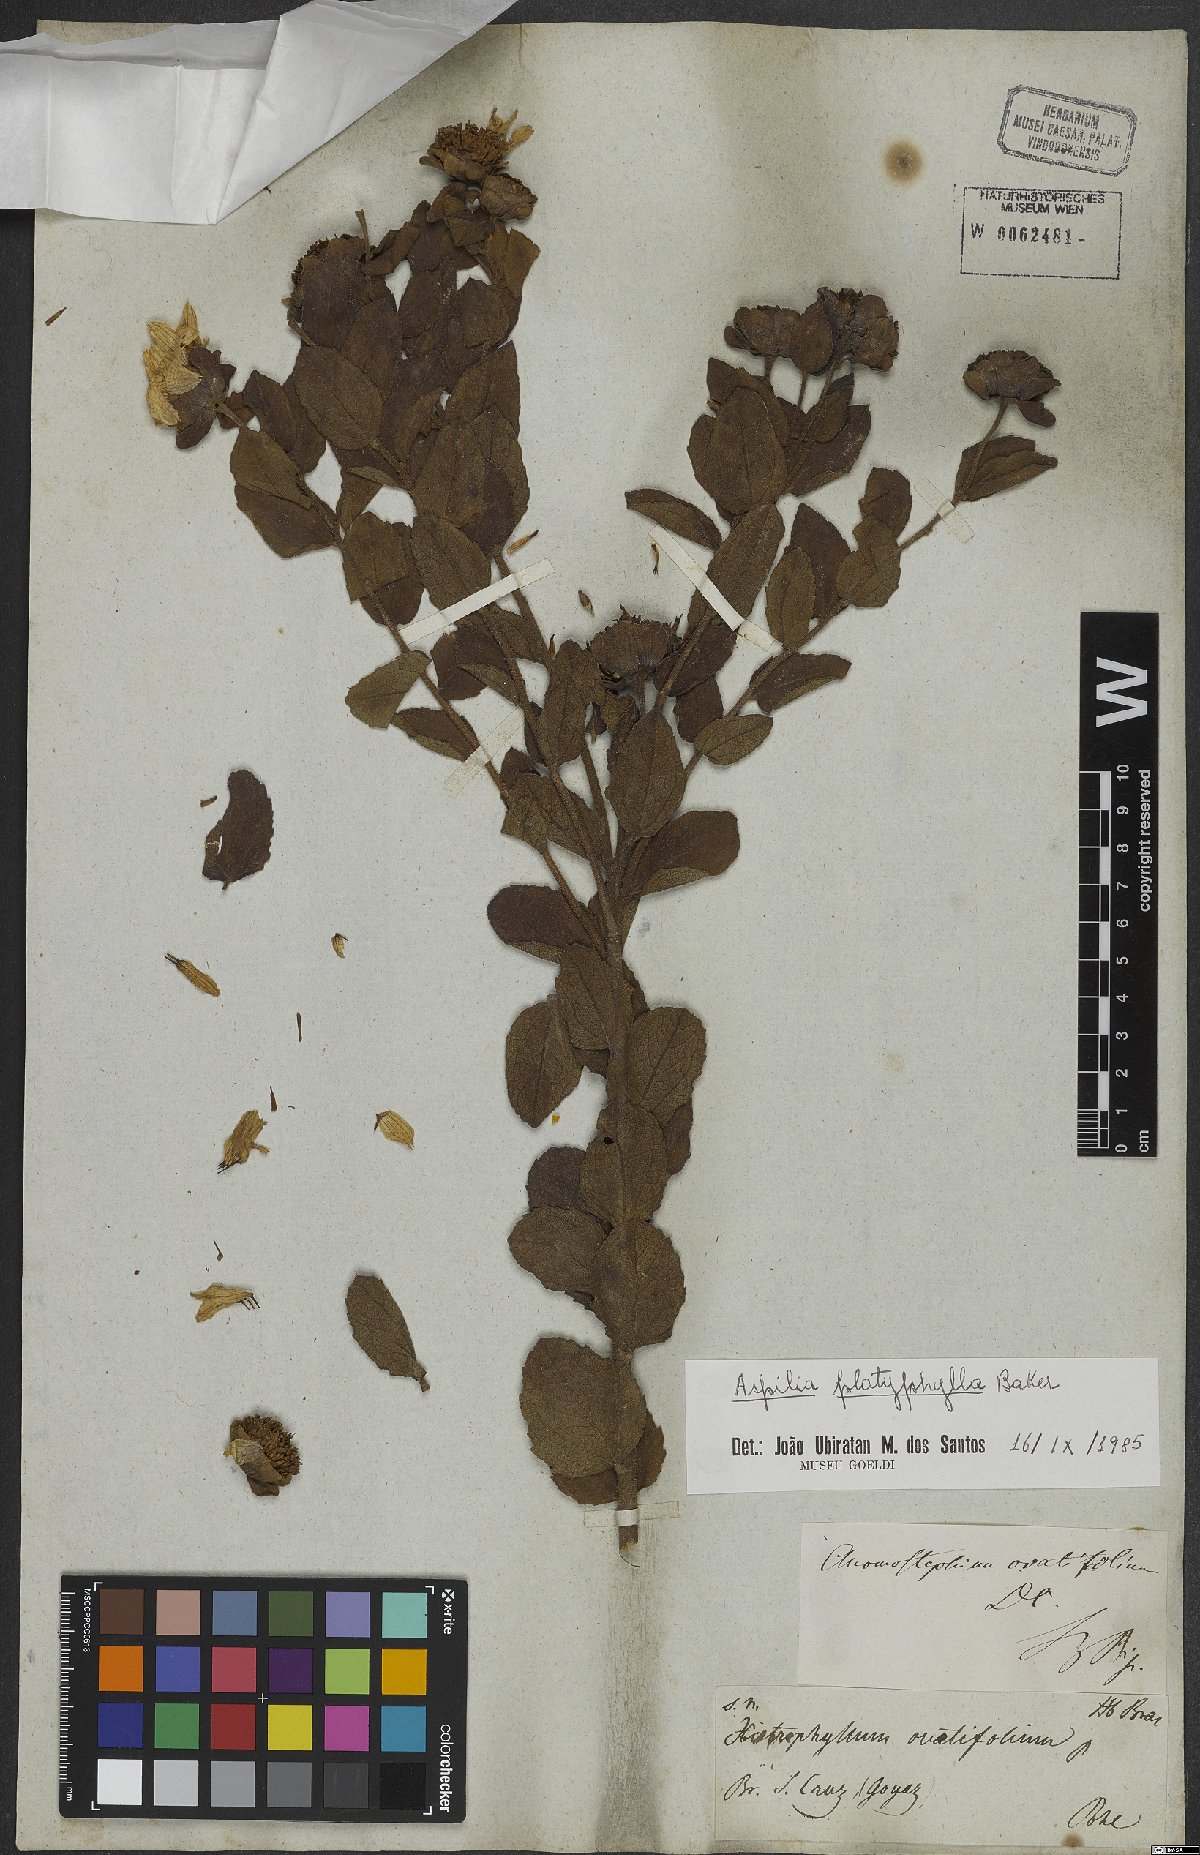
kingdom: Plantae
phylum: Tracheophyta
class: Magnoliopsida
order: Asterales
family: Asteraceae
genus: Aspilia
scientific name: Aspilia platyphylla
